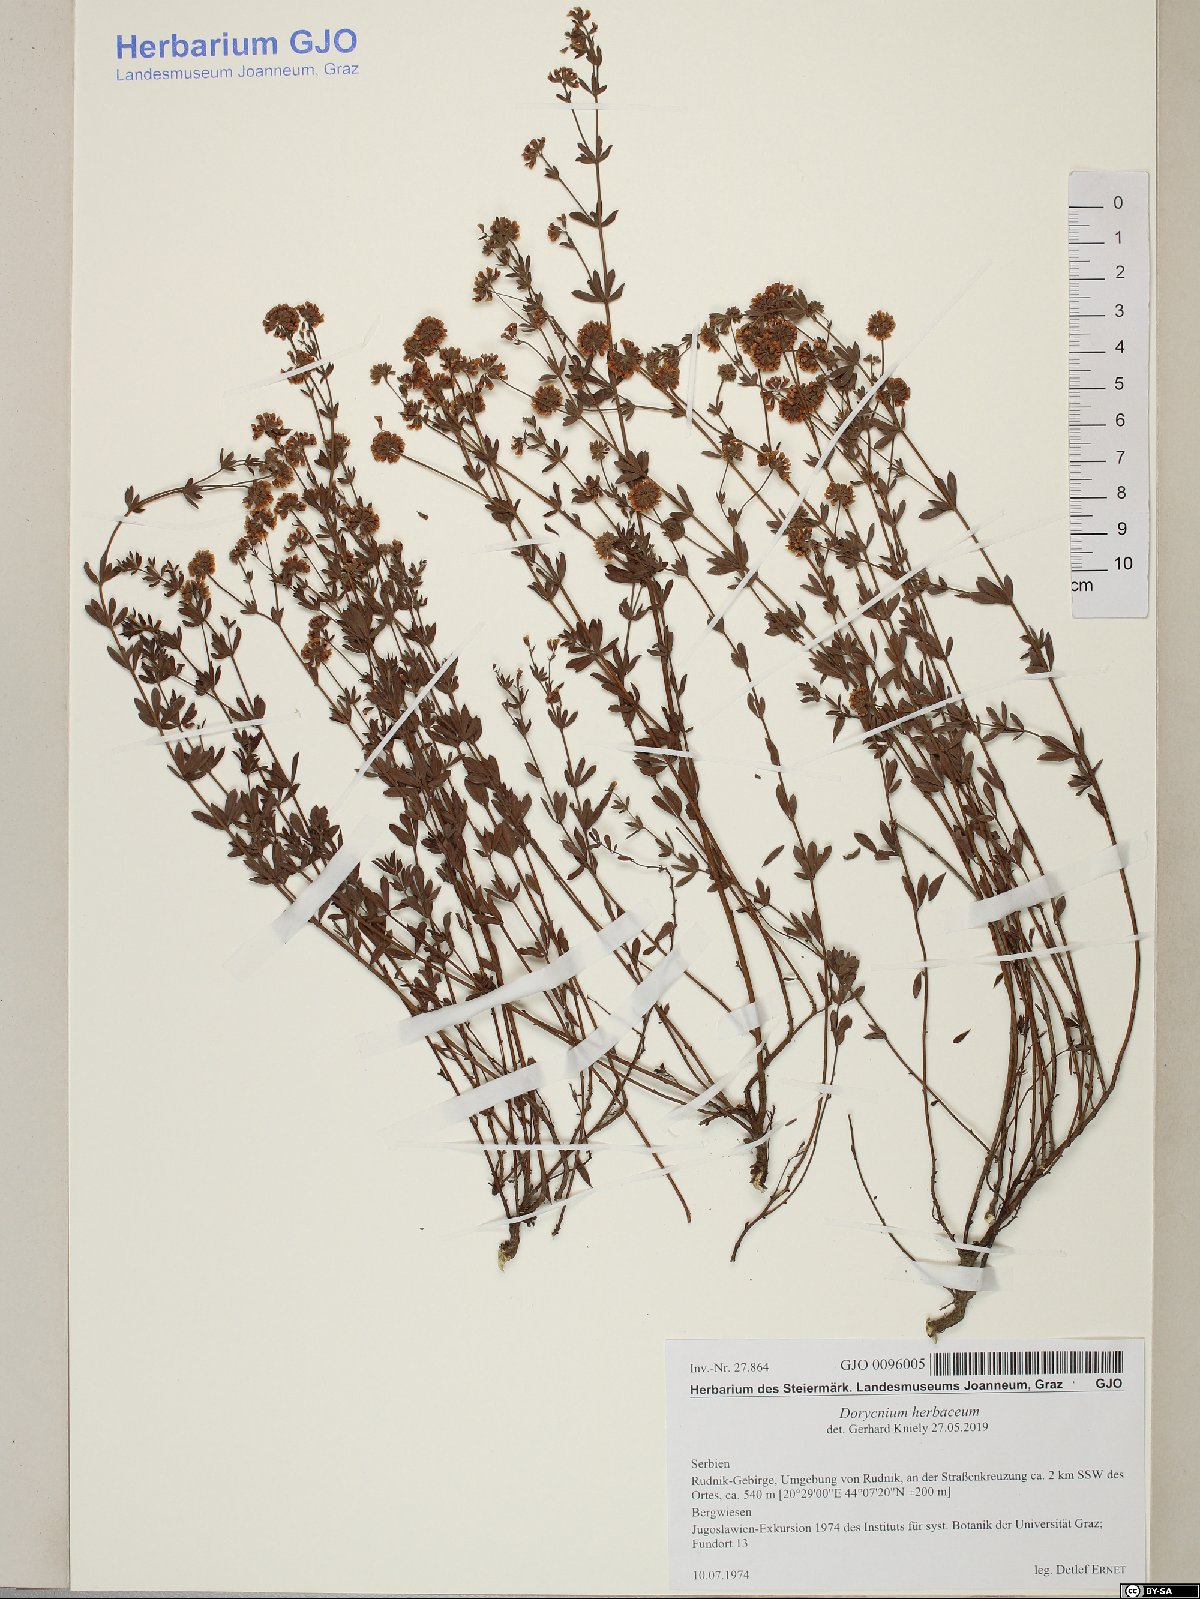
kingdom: Plantae
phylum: Tracheophyta
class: Magnoliopsida
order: Fabales
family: Fabaceae
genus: Lotus
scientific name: Lotus herbaceus
